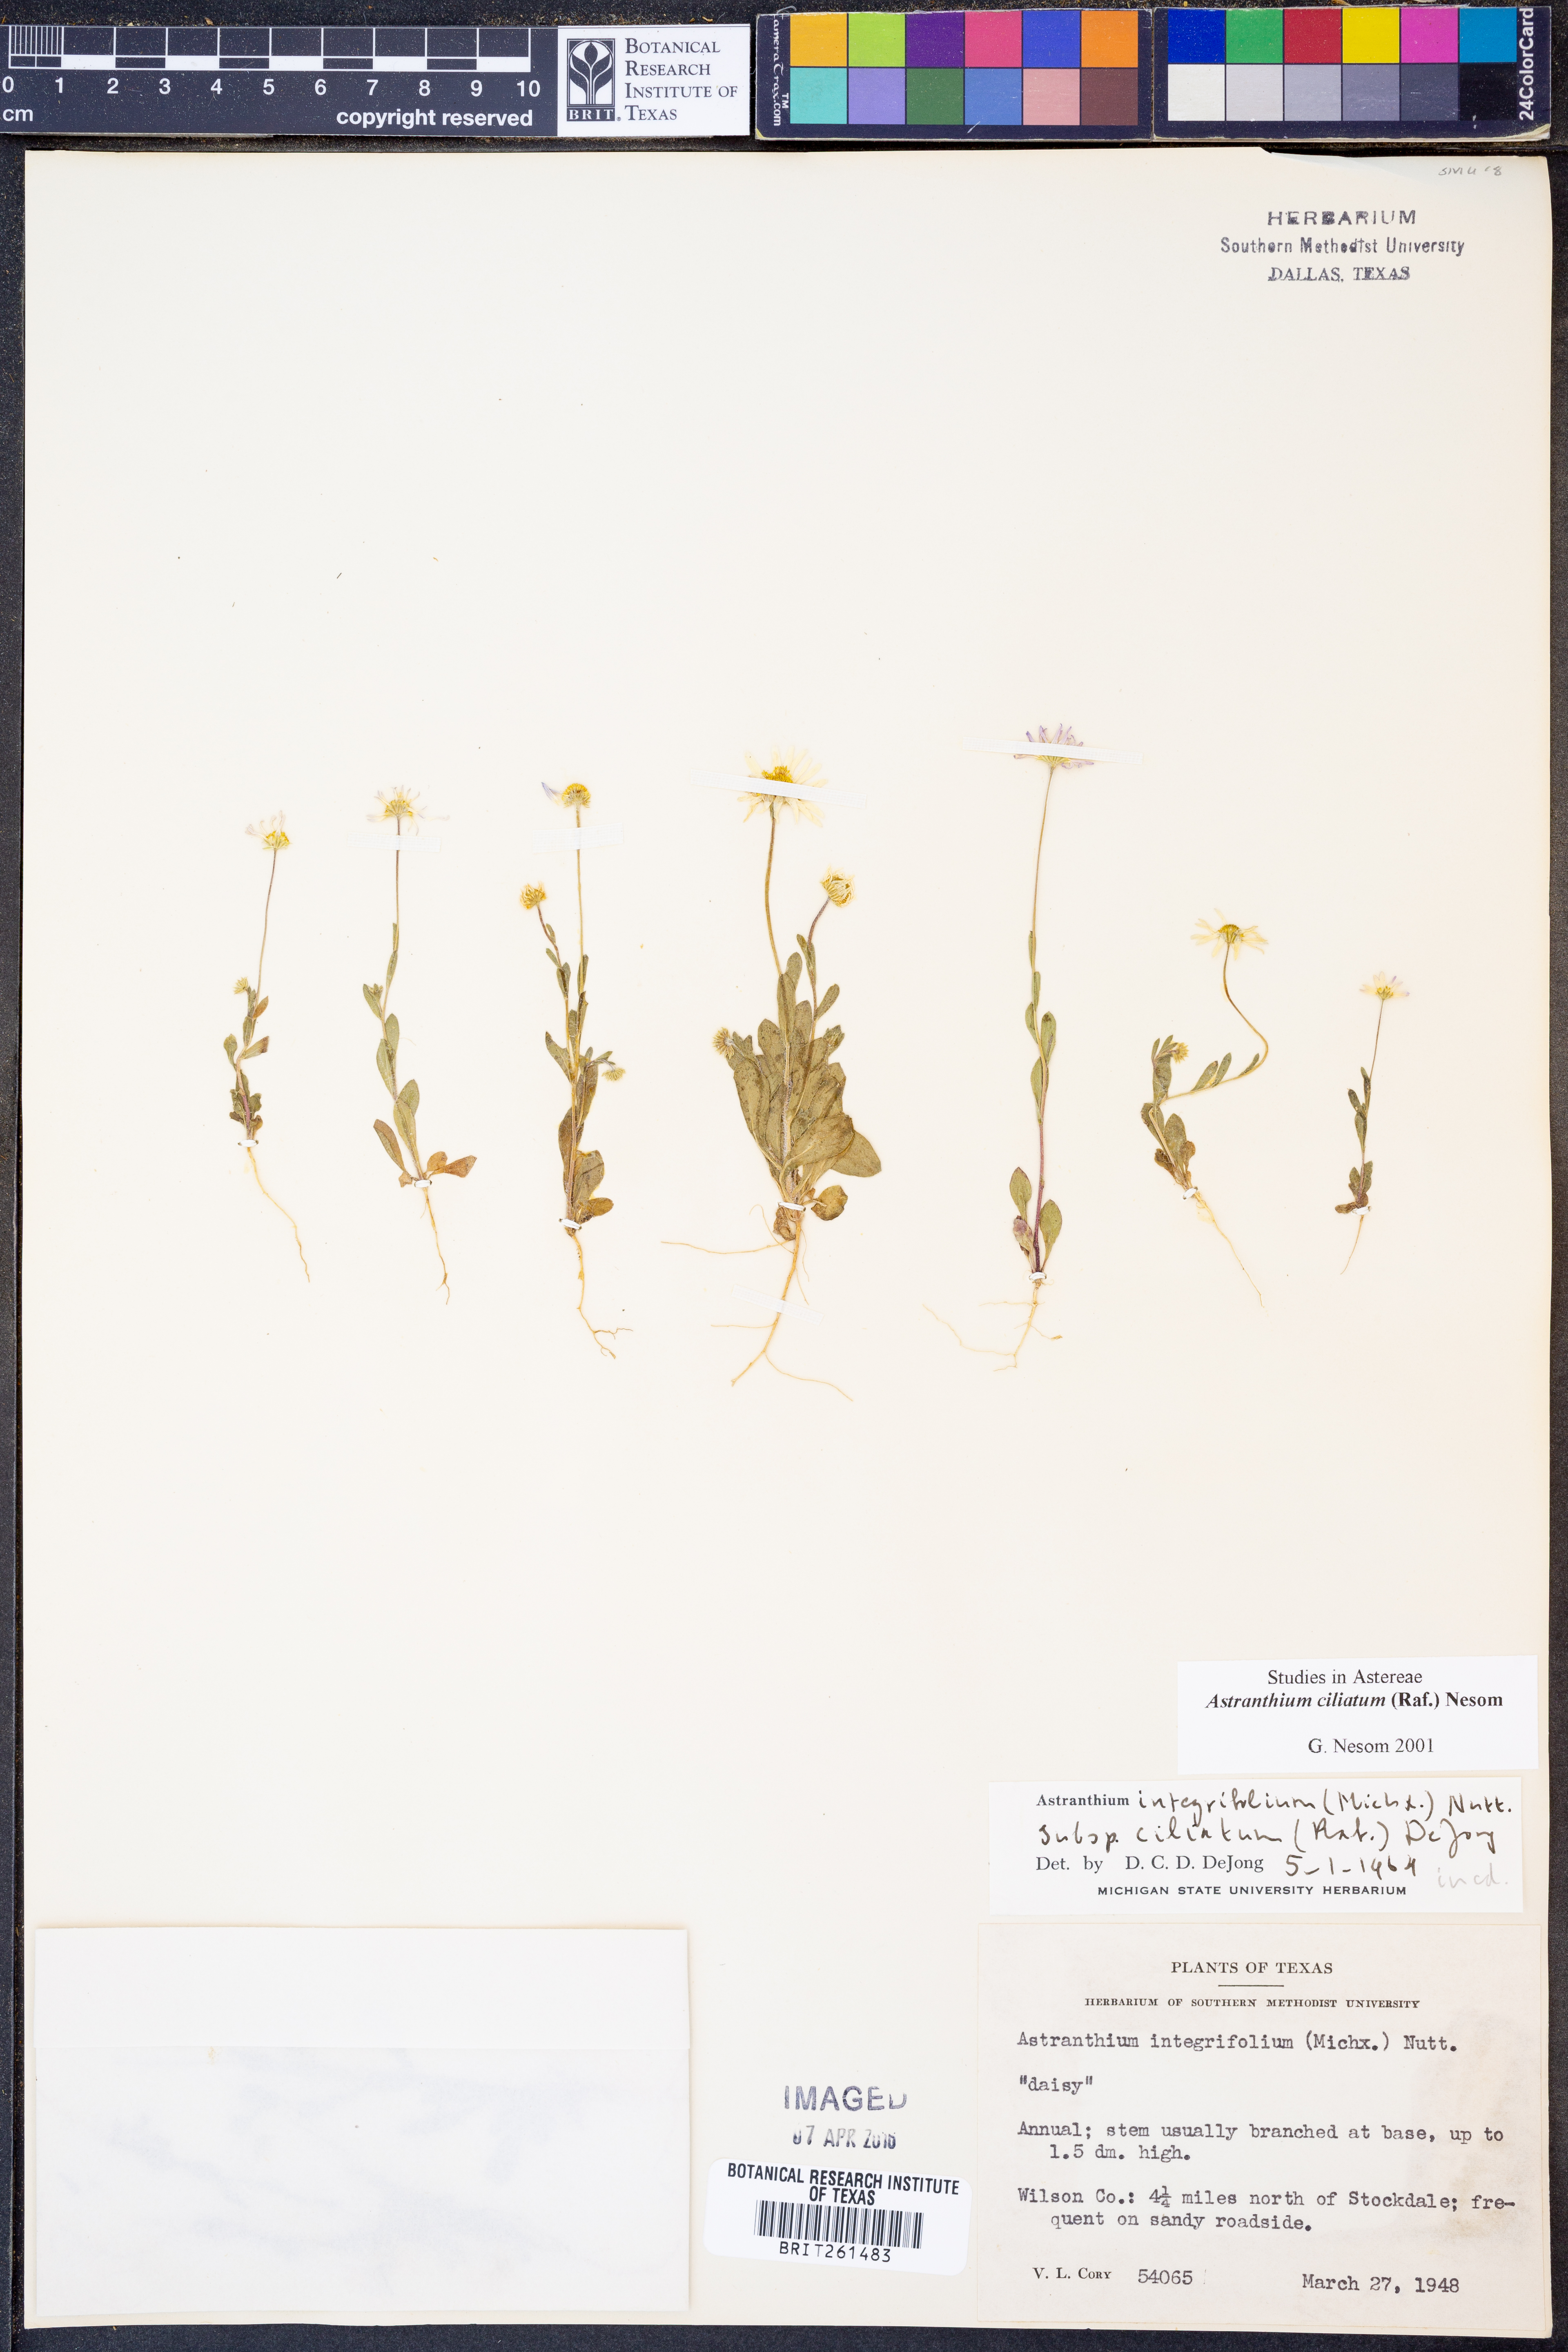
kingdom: Plantae
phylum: Tracheophyta
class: Magnoliopsida
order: Asterales
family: Asteraceae
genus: Astranthium
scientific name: Astranthium ciliatum
